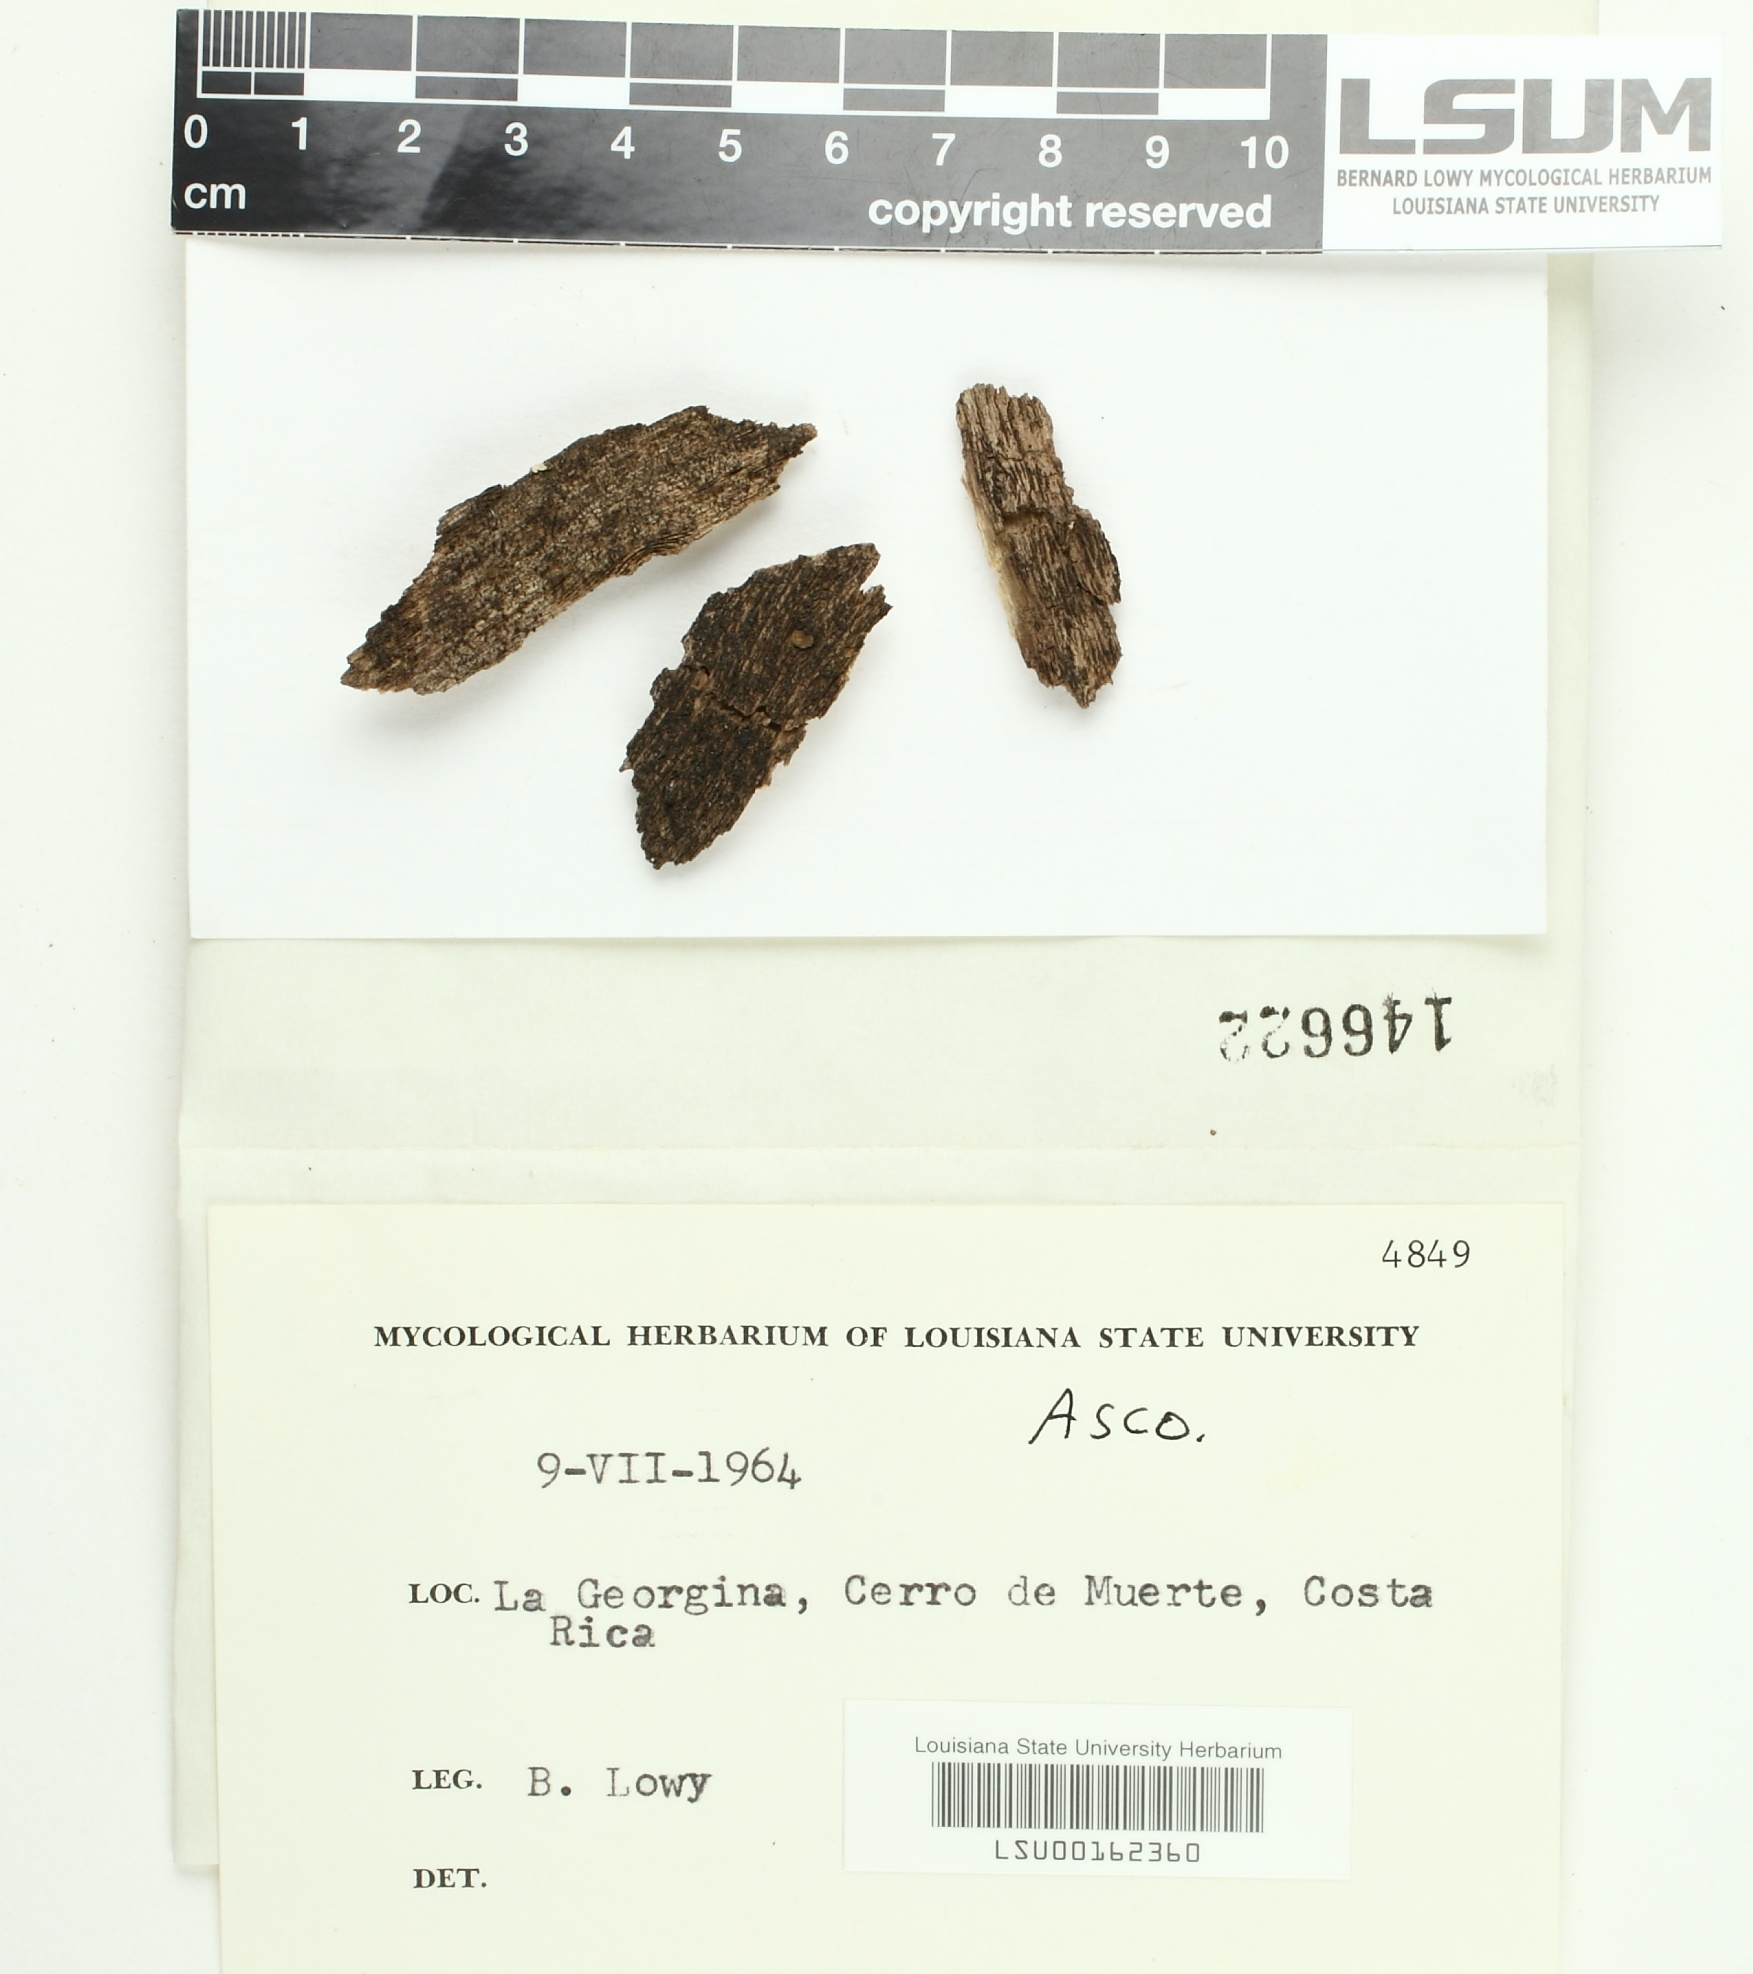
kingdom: Fungi
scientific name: Fungi
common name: Fungi
